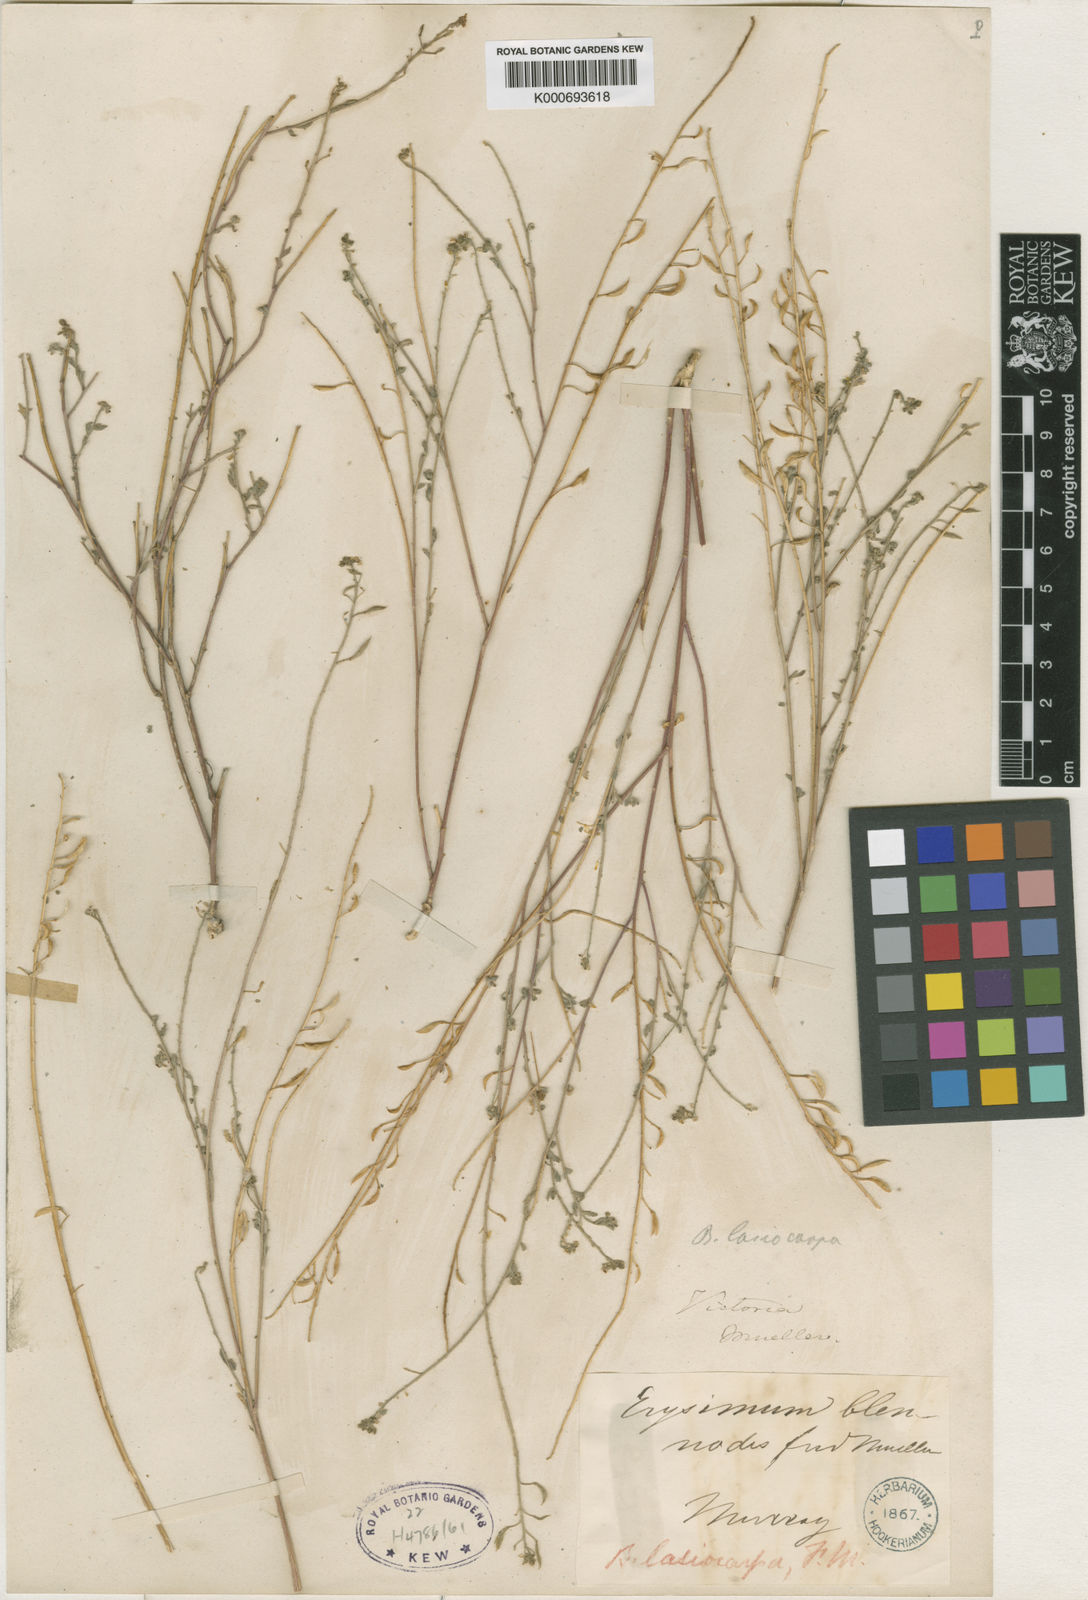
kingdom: Plantae
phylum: Tracheophyta
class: Magnoliopsida
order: Brassicales
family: Brassicaceae
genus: Blennodia
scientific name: Blennodia
